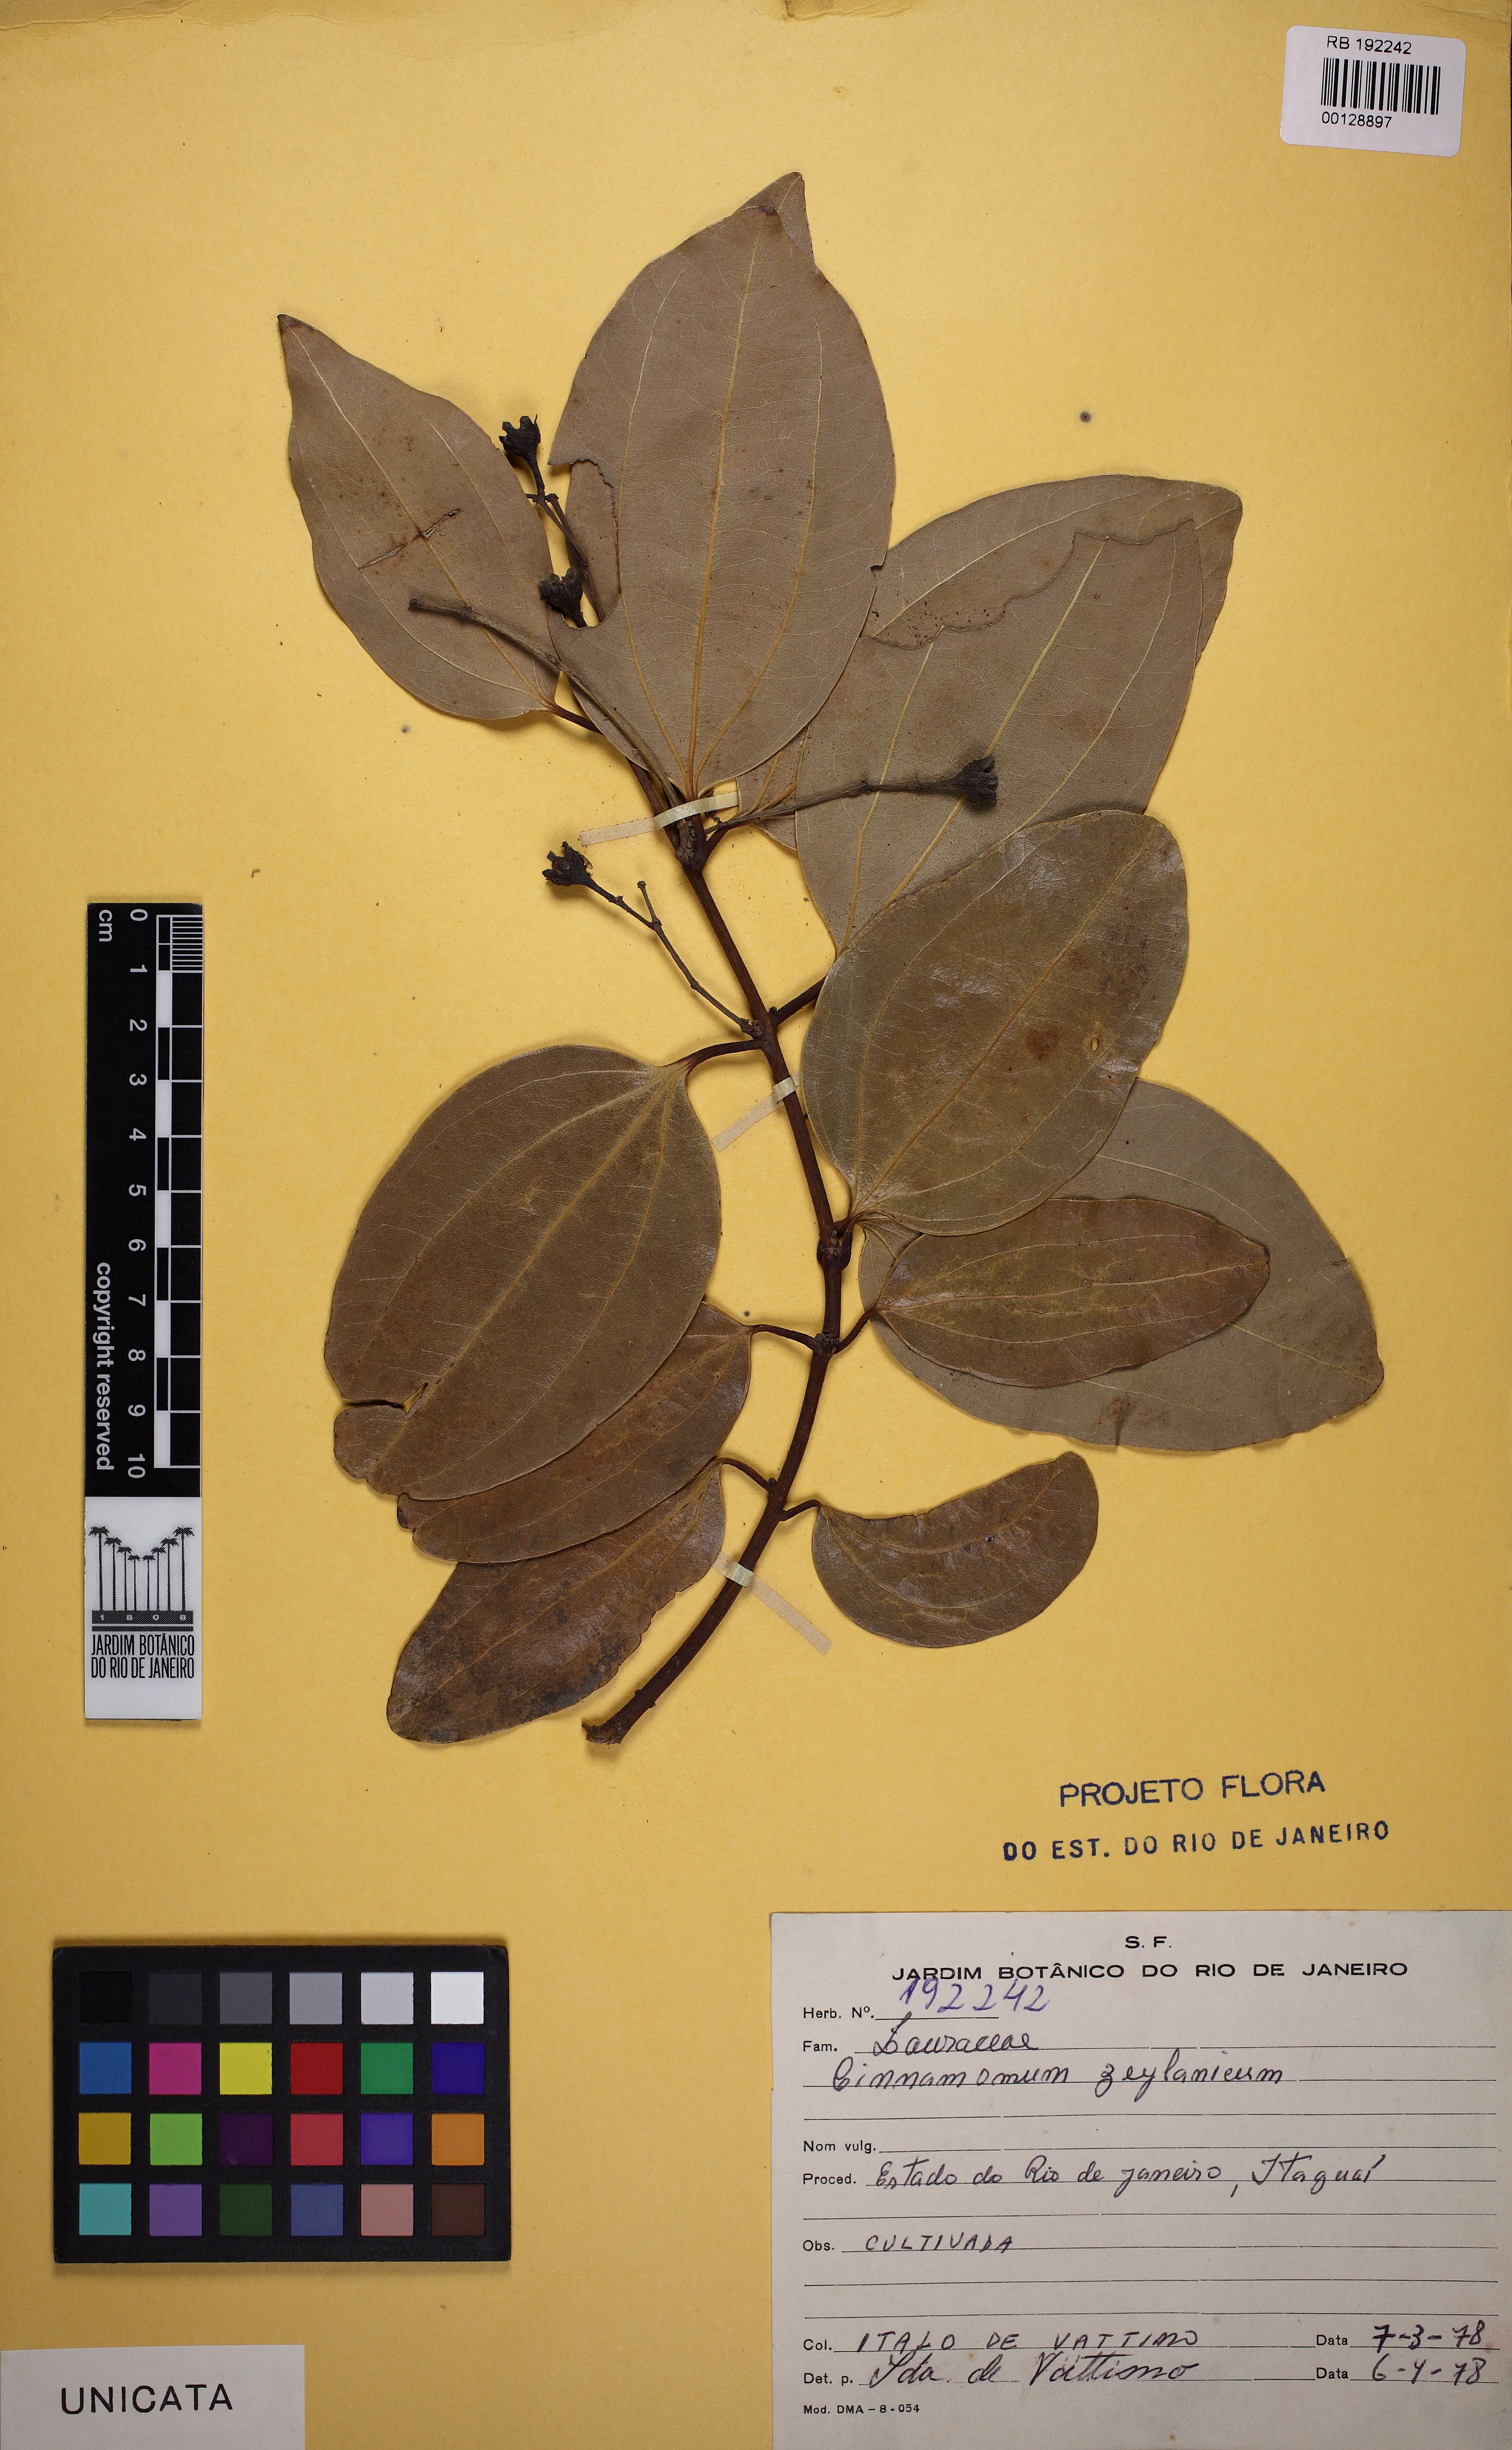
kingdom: Plantae
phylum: Tracheophyta
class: Magnoliopsida
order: Laurales
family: Lauraceae
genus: Cinnamomum
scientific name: Cinnamomum verum
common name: Cinnamon
